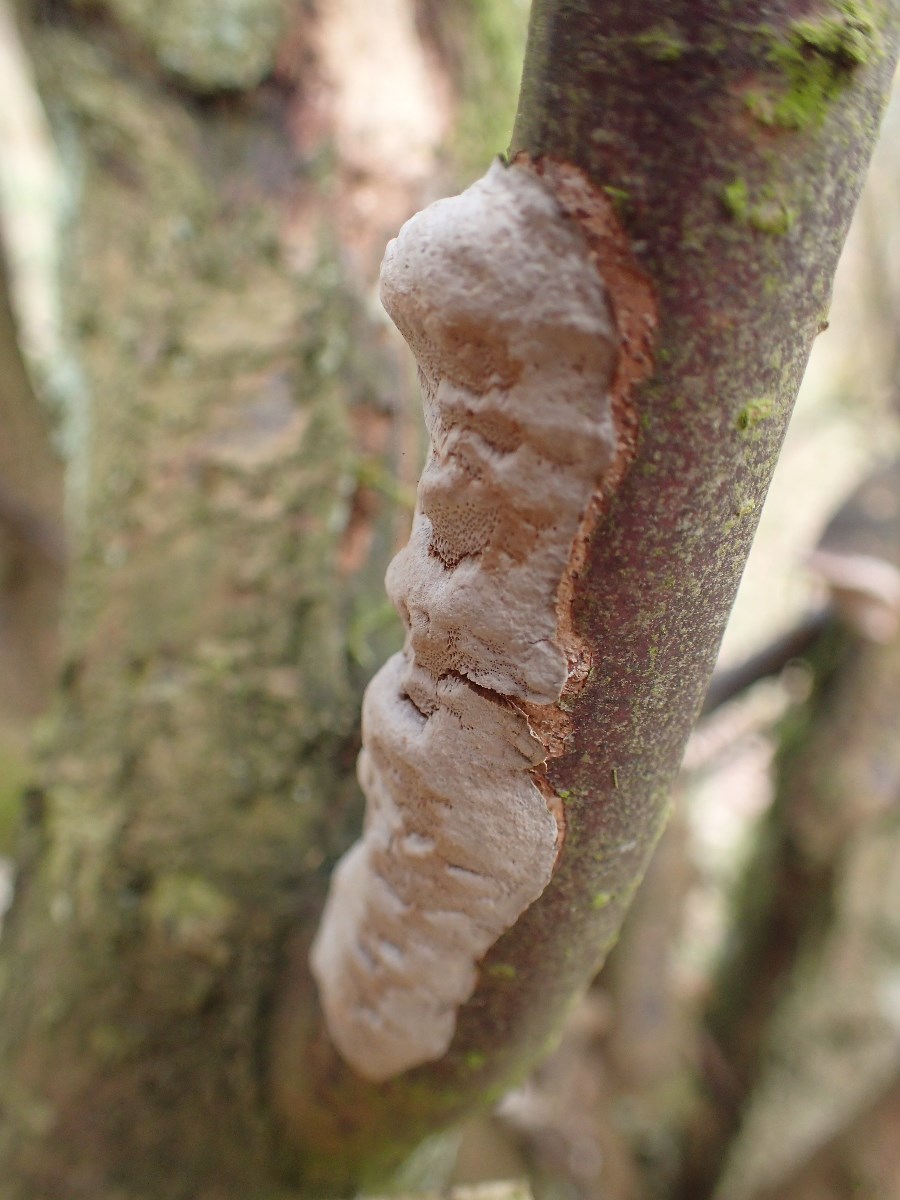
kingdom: Fungi
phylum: Basidiomycota
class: Agaricomycetes
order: Hymenochaetales
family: Hymenochaetaceae
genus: Phellinus
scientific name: Phellinus pomaceus
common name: blomme-ildporesvamp
